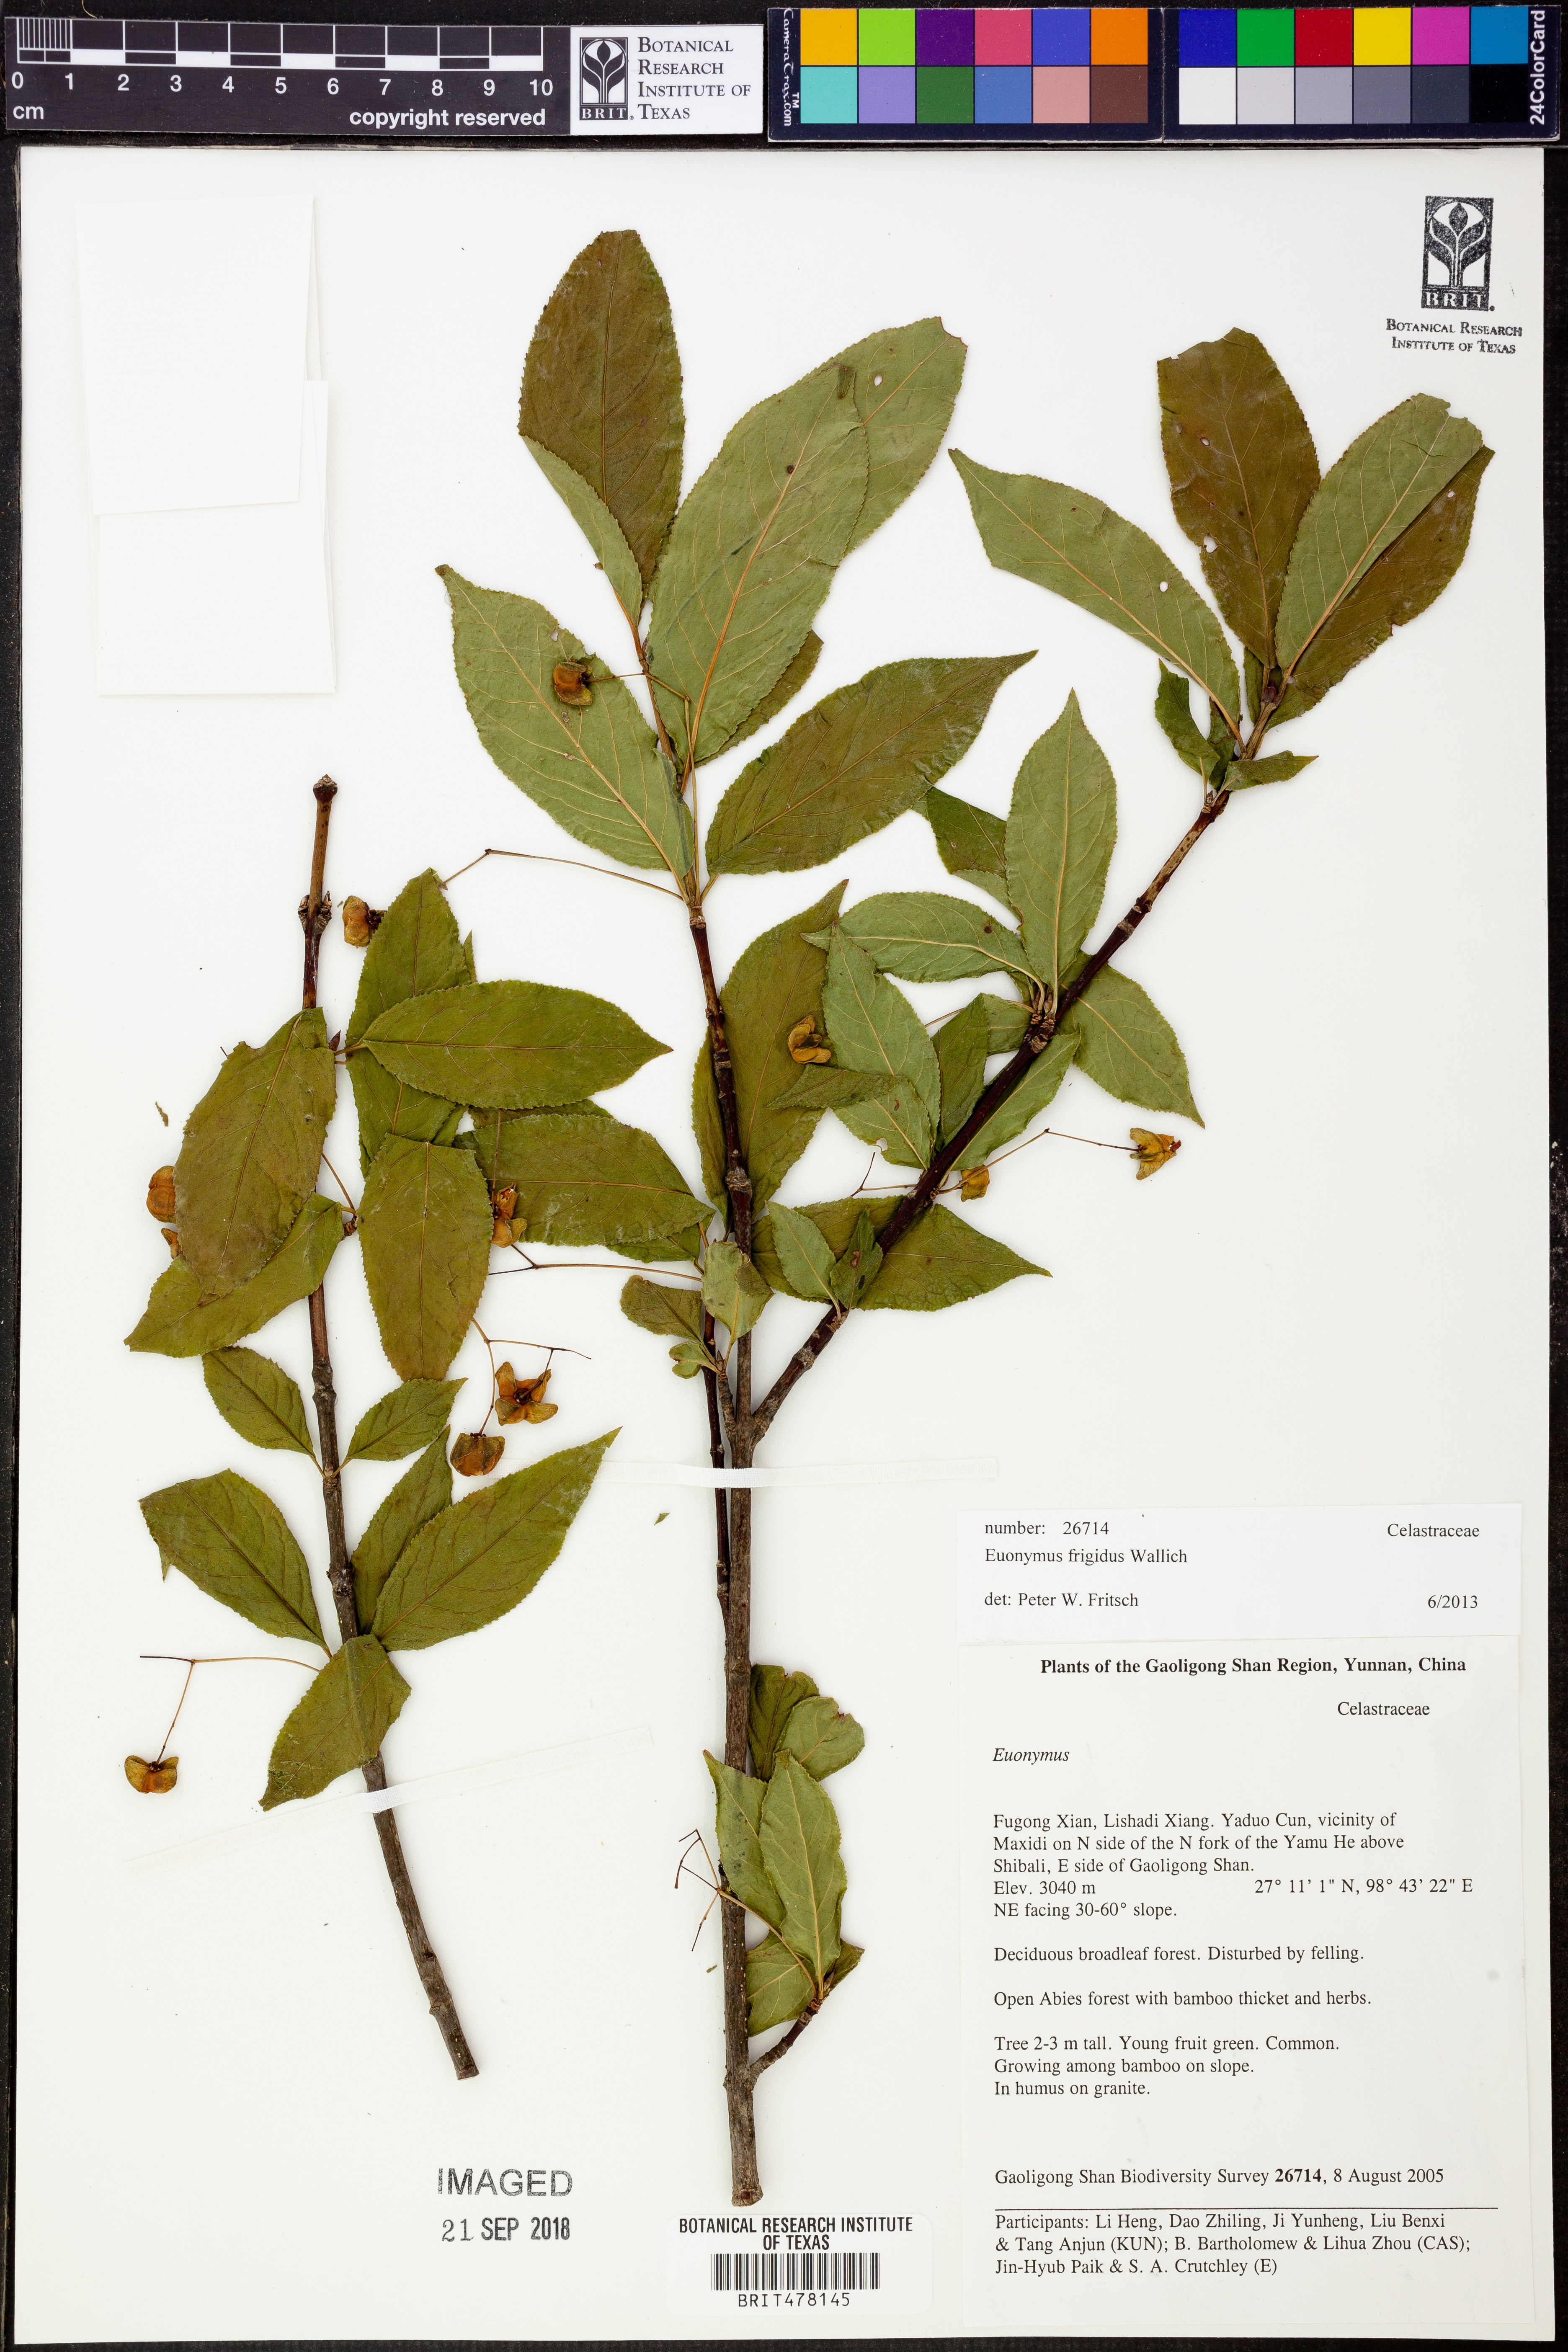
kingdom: Plantae
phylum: Tracheophyta
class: Magnoliopsida
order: Celastrales
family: Celastraceae
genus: Euonymus
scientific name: Euonymus frigidus
